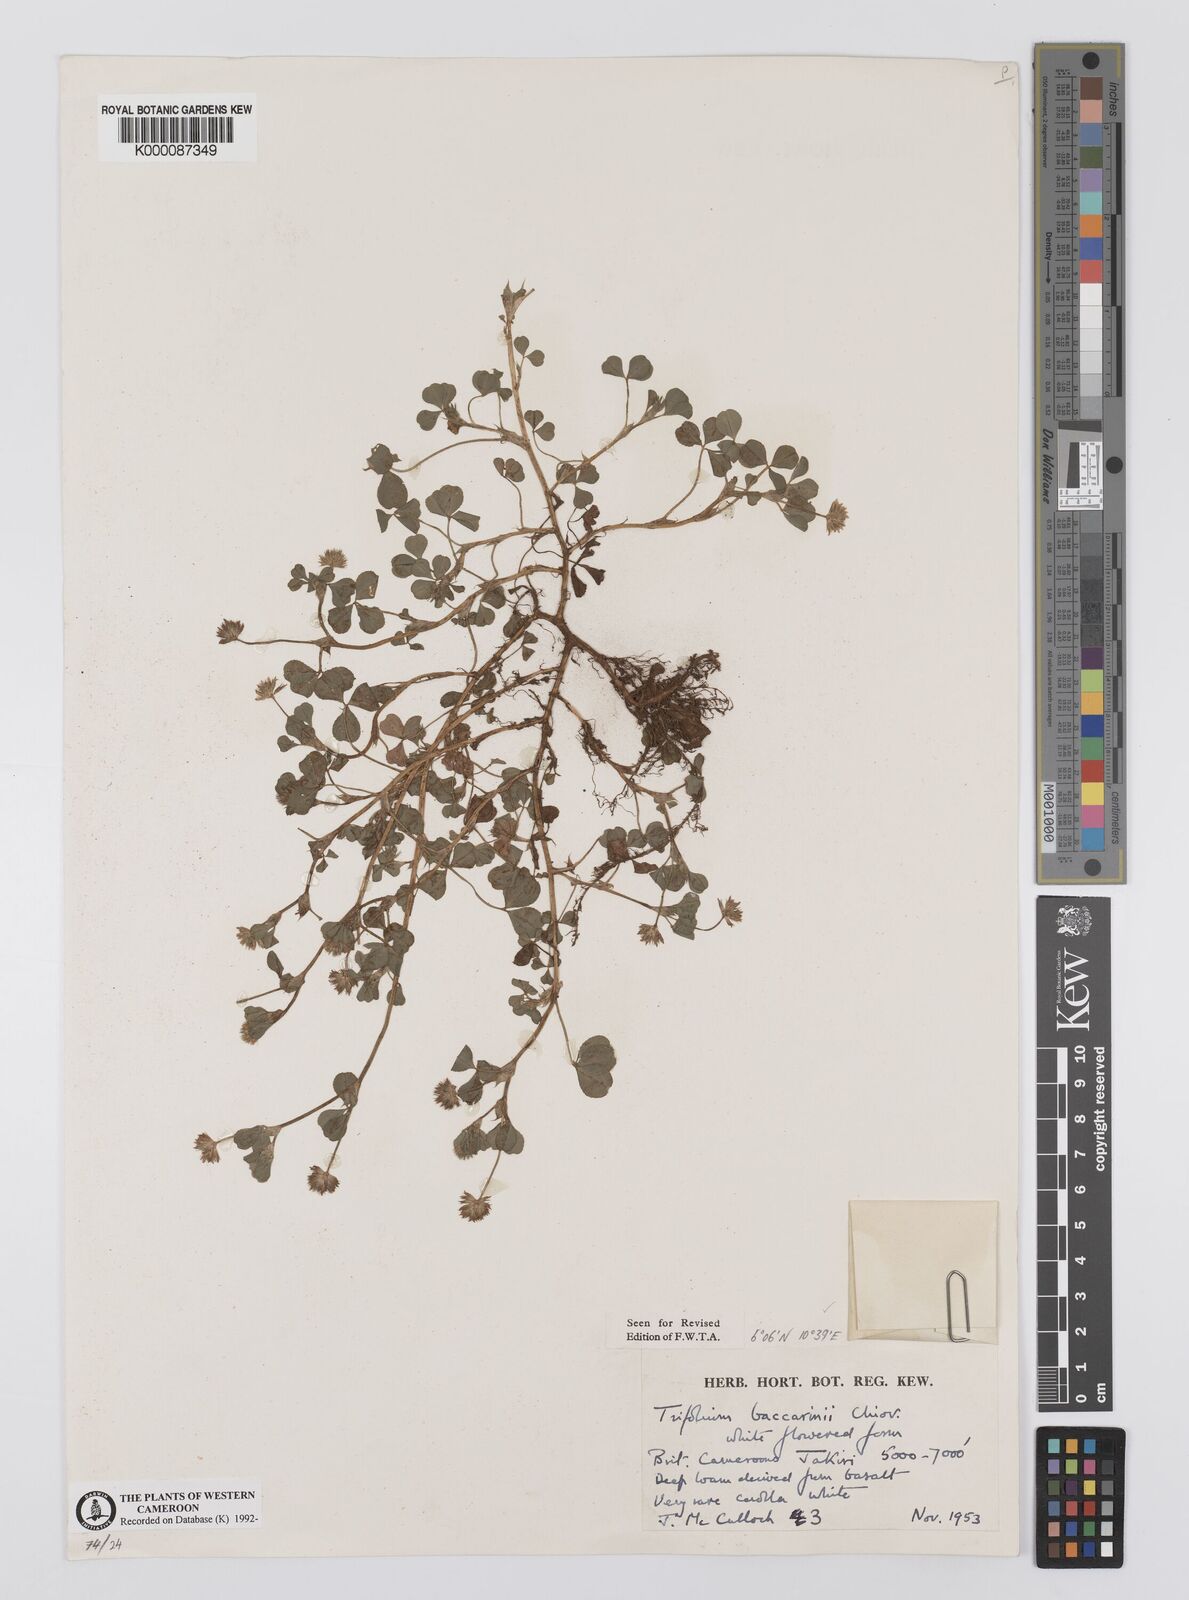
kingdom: Plantae
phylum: Tracheophyta
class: Magnoliopsida
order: Fabales
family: Fabaceae
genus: Trifolium
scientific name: Trifolium baccarinii
